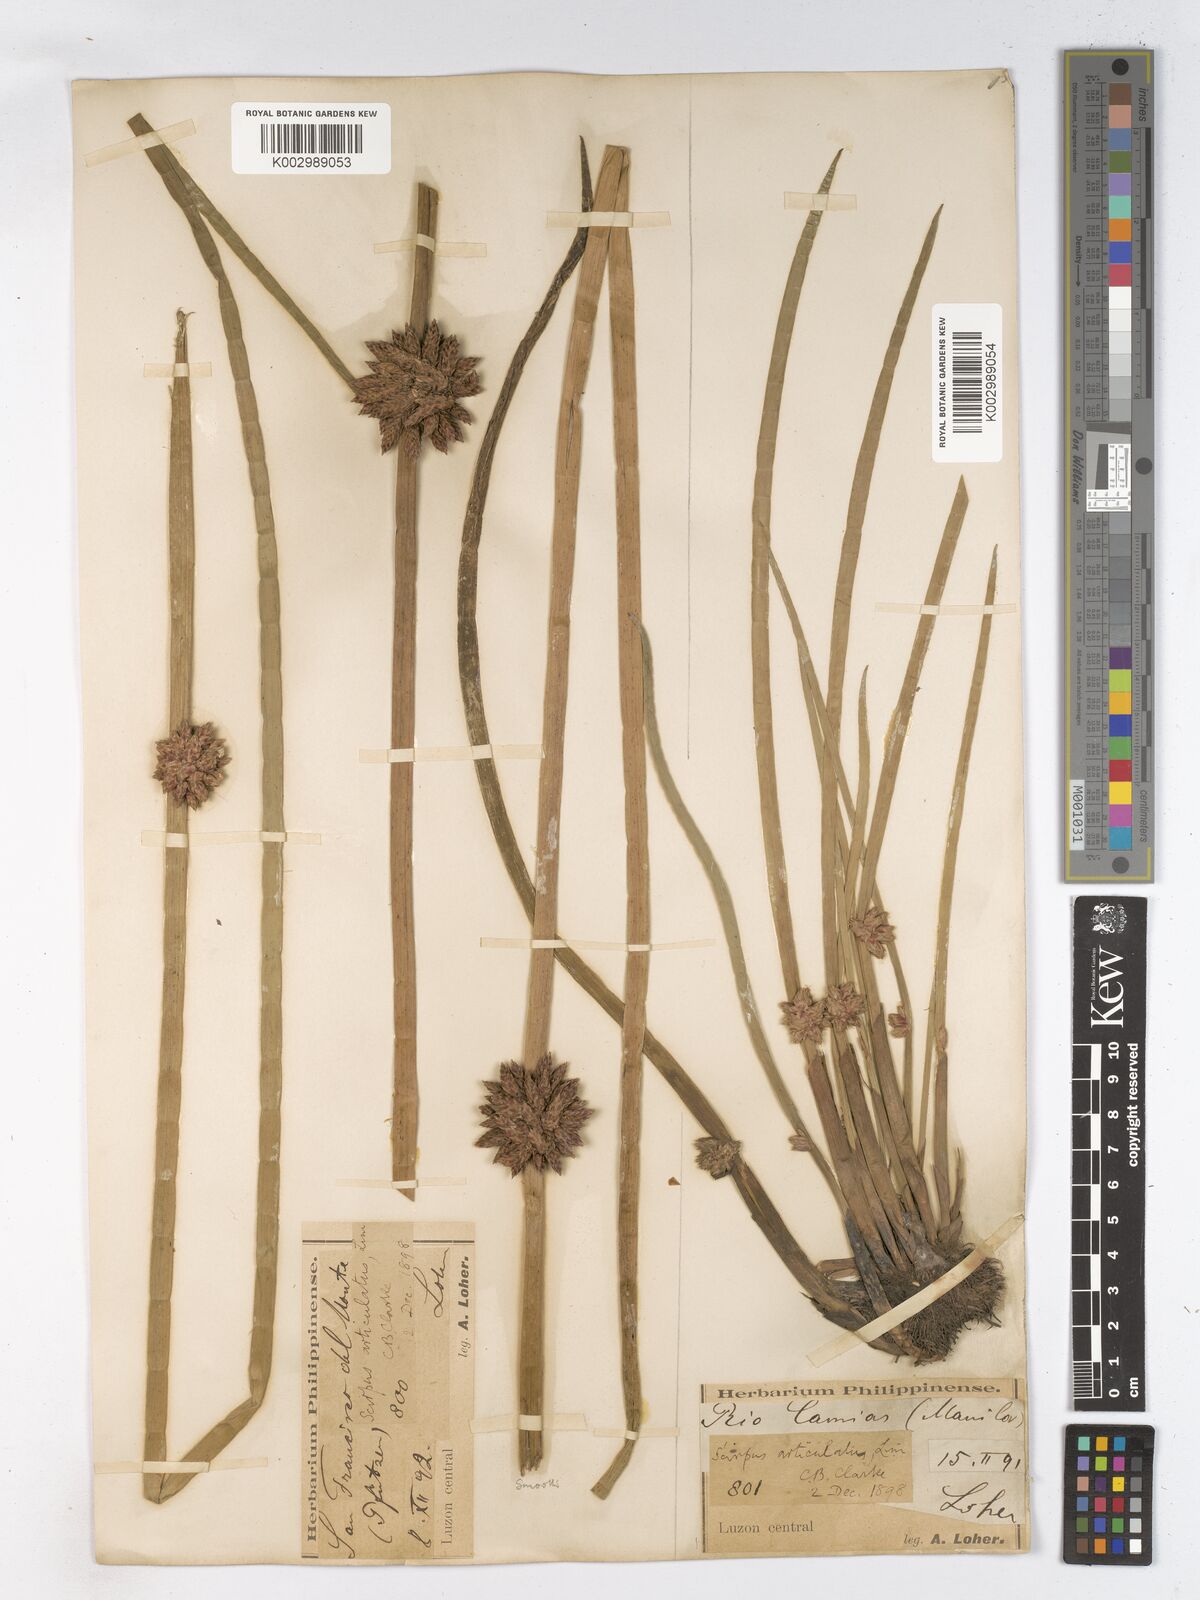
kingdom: Plantae
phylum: Tracheophyta
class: Liliopsida
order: Poales
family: Cyperaceae
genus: Schoenoplectiella
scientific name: Schoenoplectiella articulata
